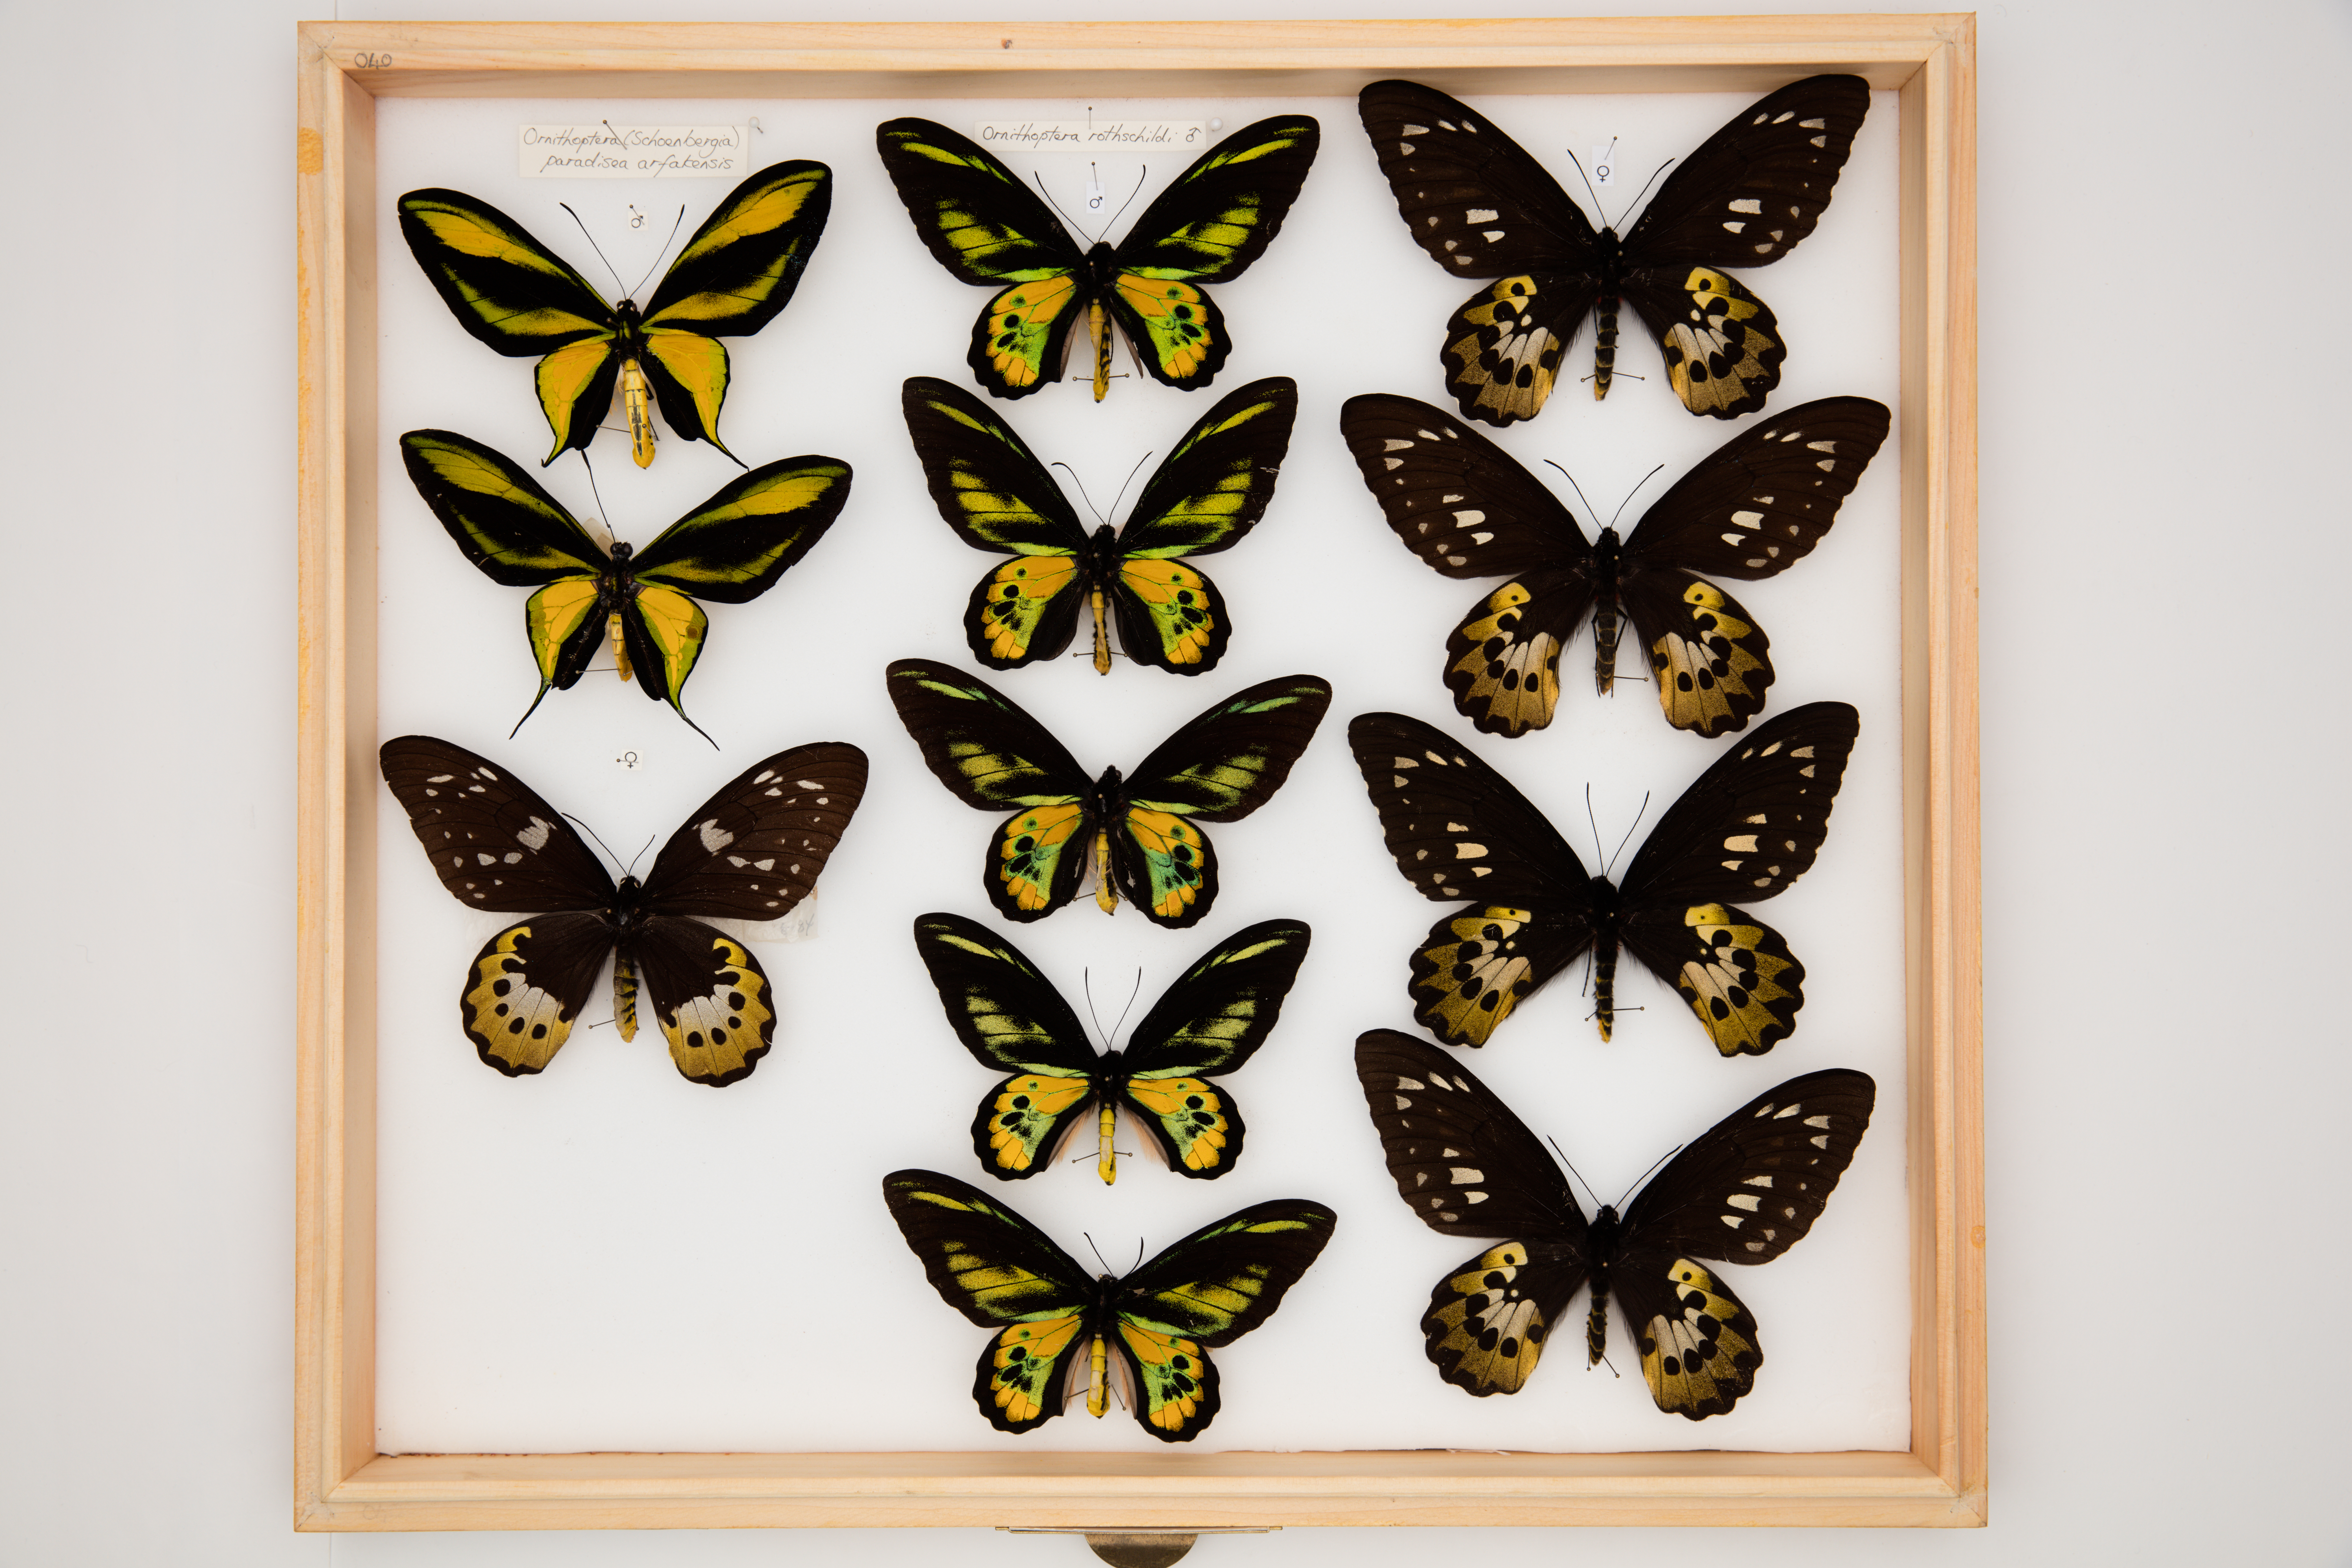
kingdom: Animalia
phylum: Arthropoda
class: Insecta
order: Lepidoptera
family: Papilionidae
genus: Ornithoptera
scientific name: Ornithoptera rothschildi
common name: Rothschild's birdwing
